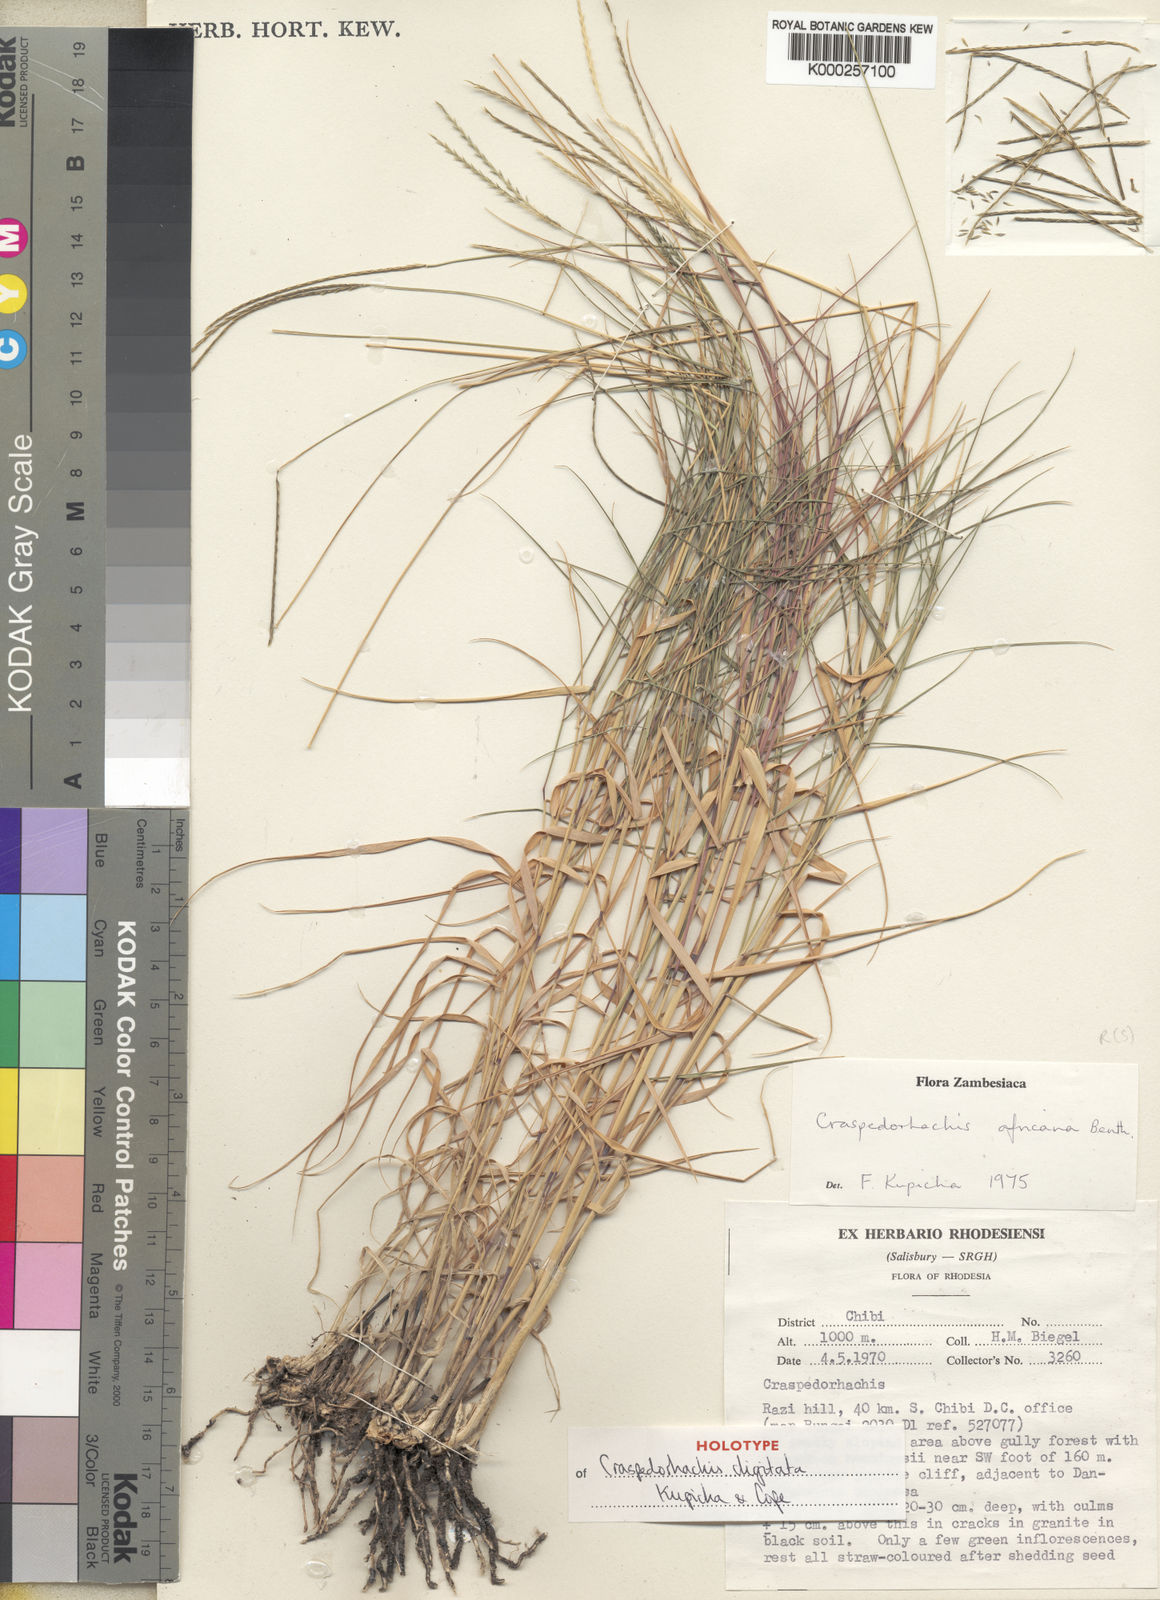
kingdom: Plantae
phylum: Tracheophyta
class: Liliopsida
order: Poales
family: Poaceae
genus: Craspedorhachis
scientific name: Craspedorhachis digitata
